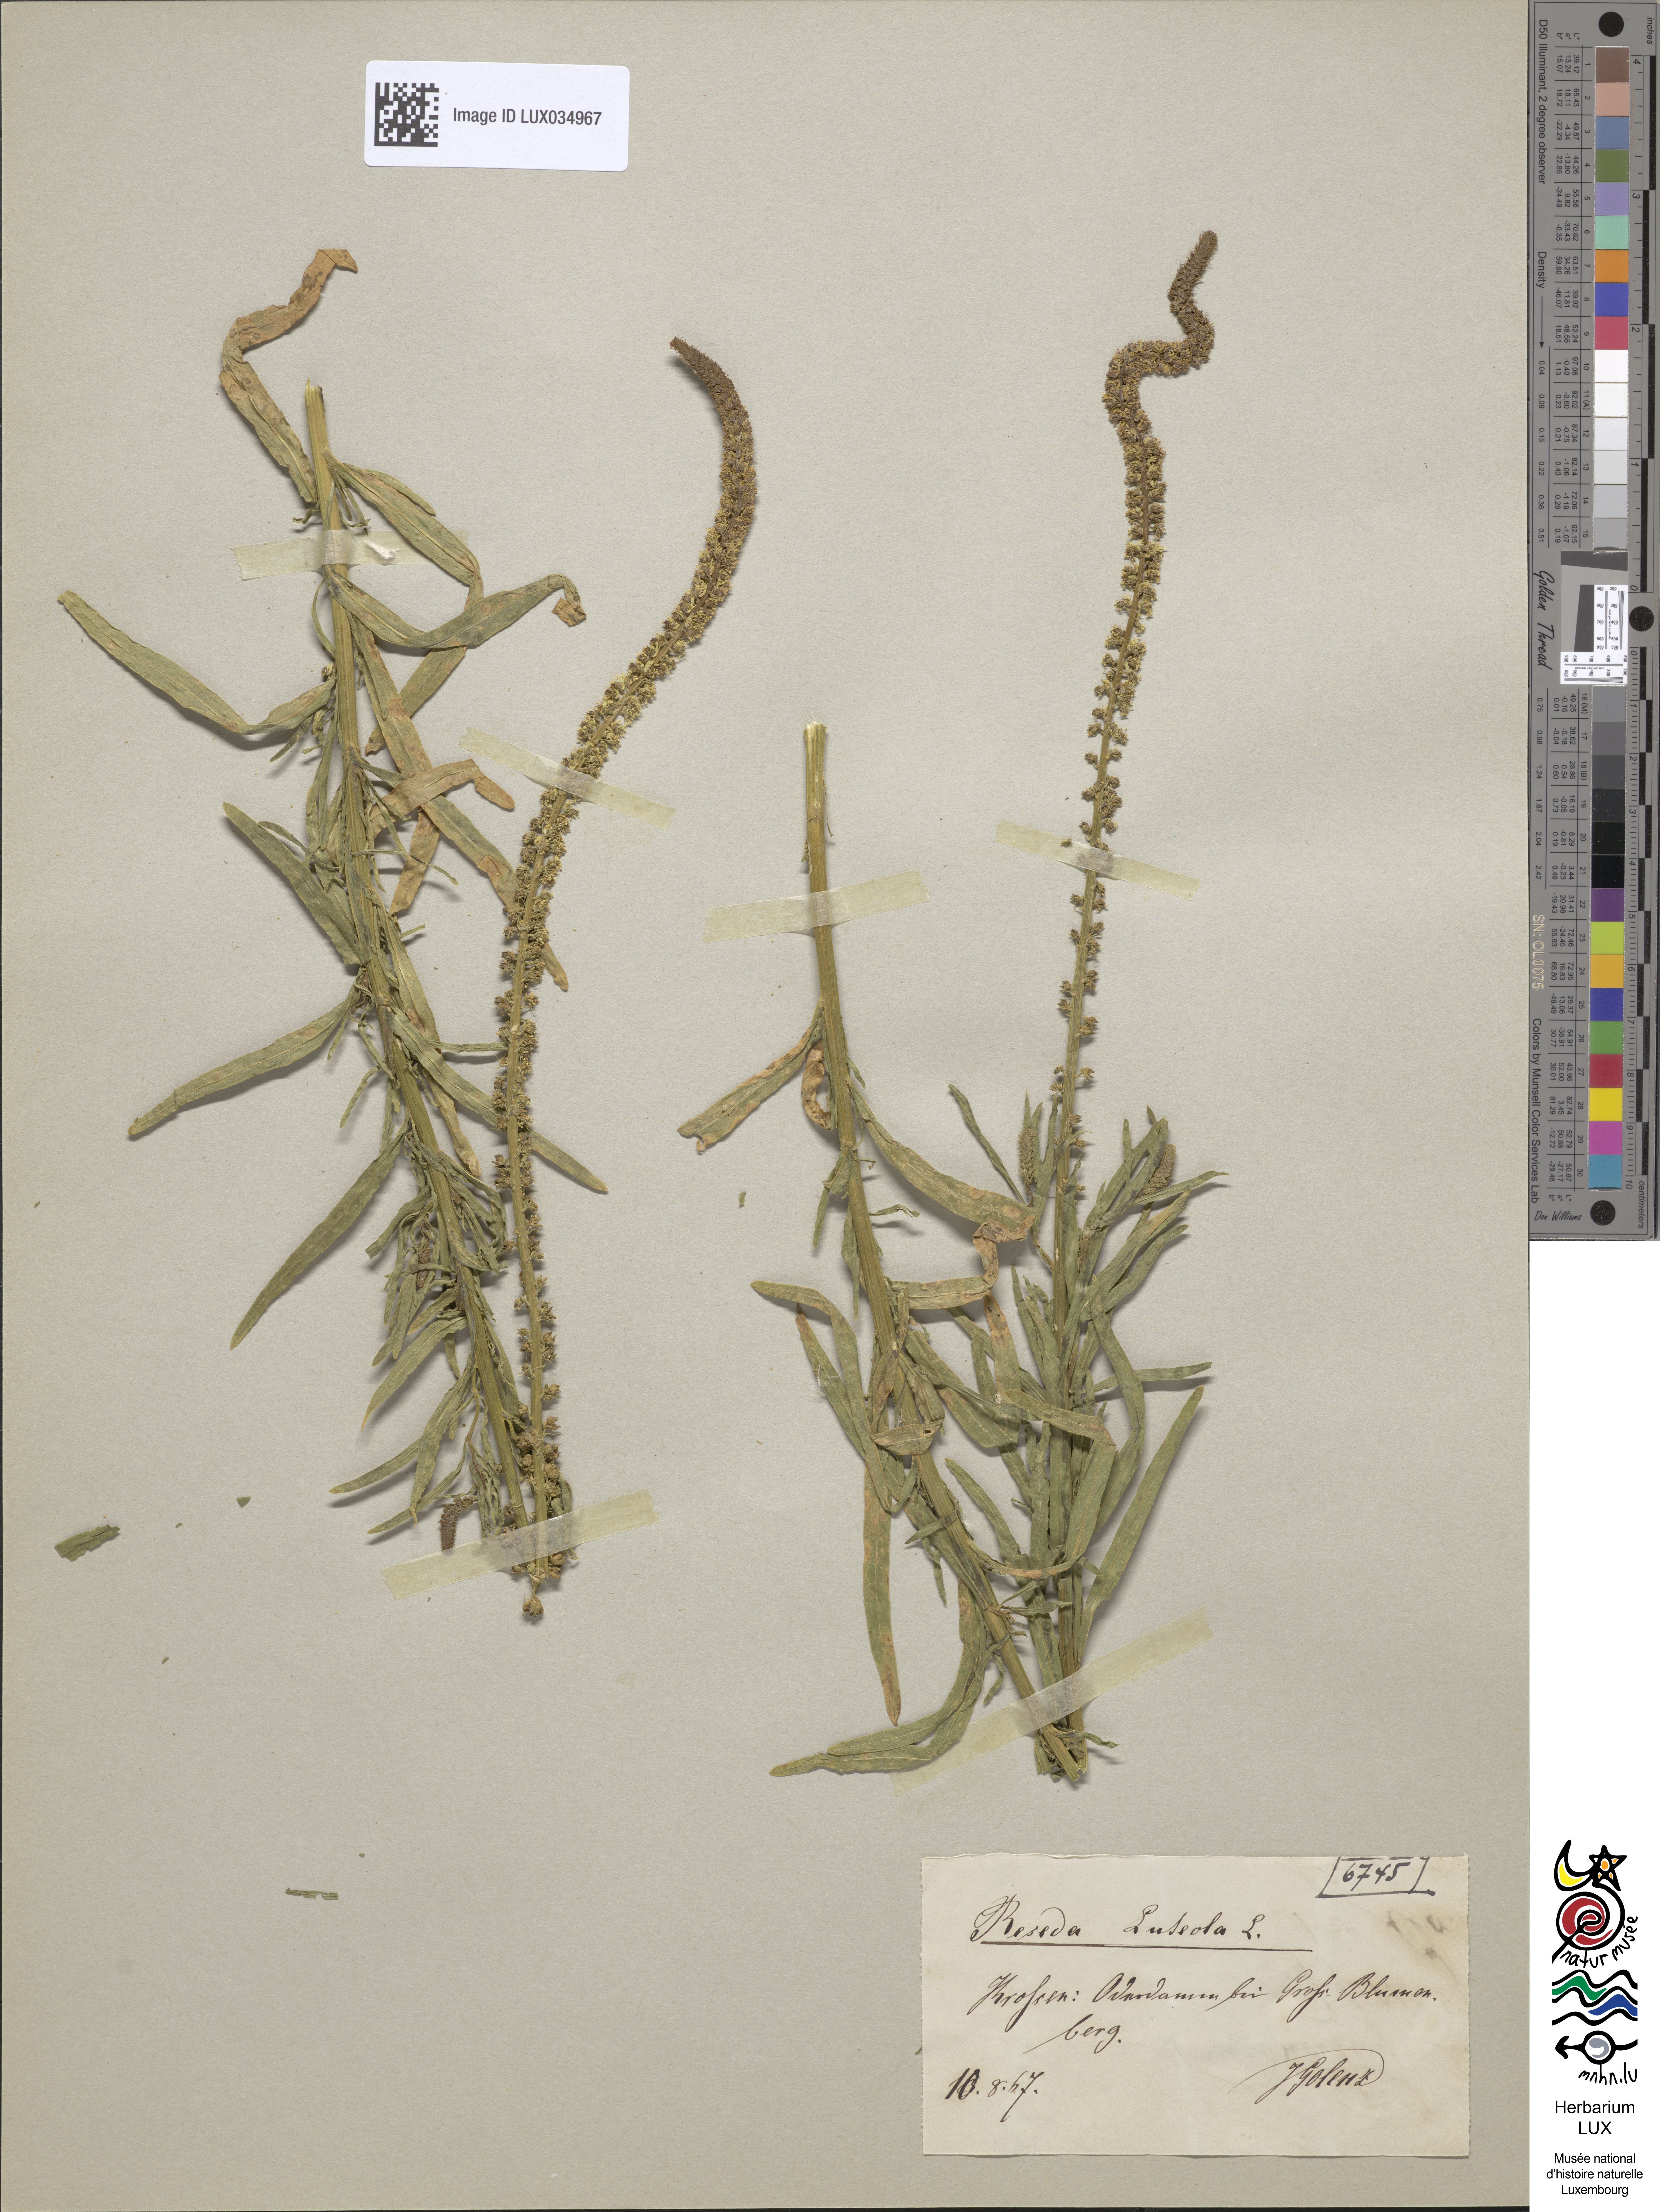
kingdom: Plantae
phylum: Tracheophyta
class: Magnoliopsida
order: Brassicales
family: Resedaceae
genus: Reseda
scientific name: Reseda luteola
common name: Weld
